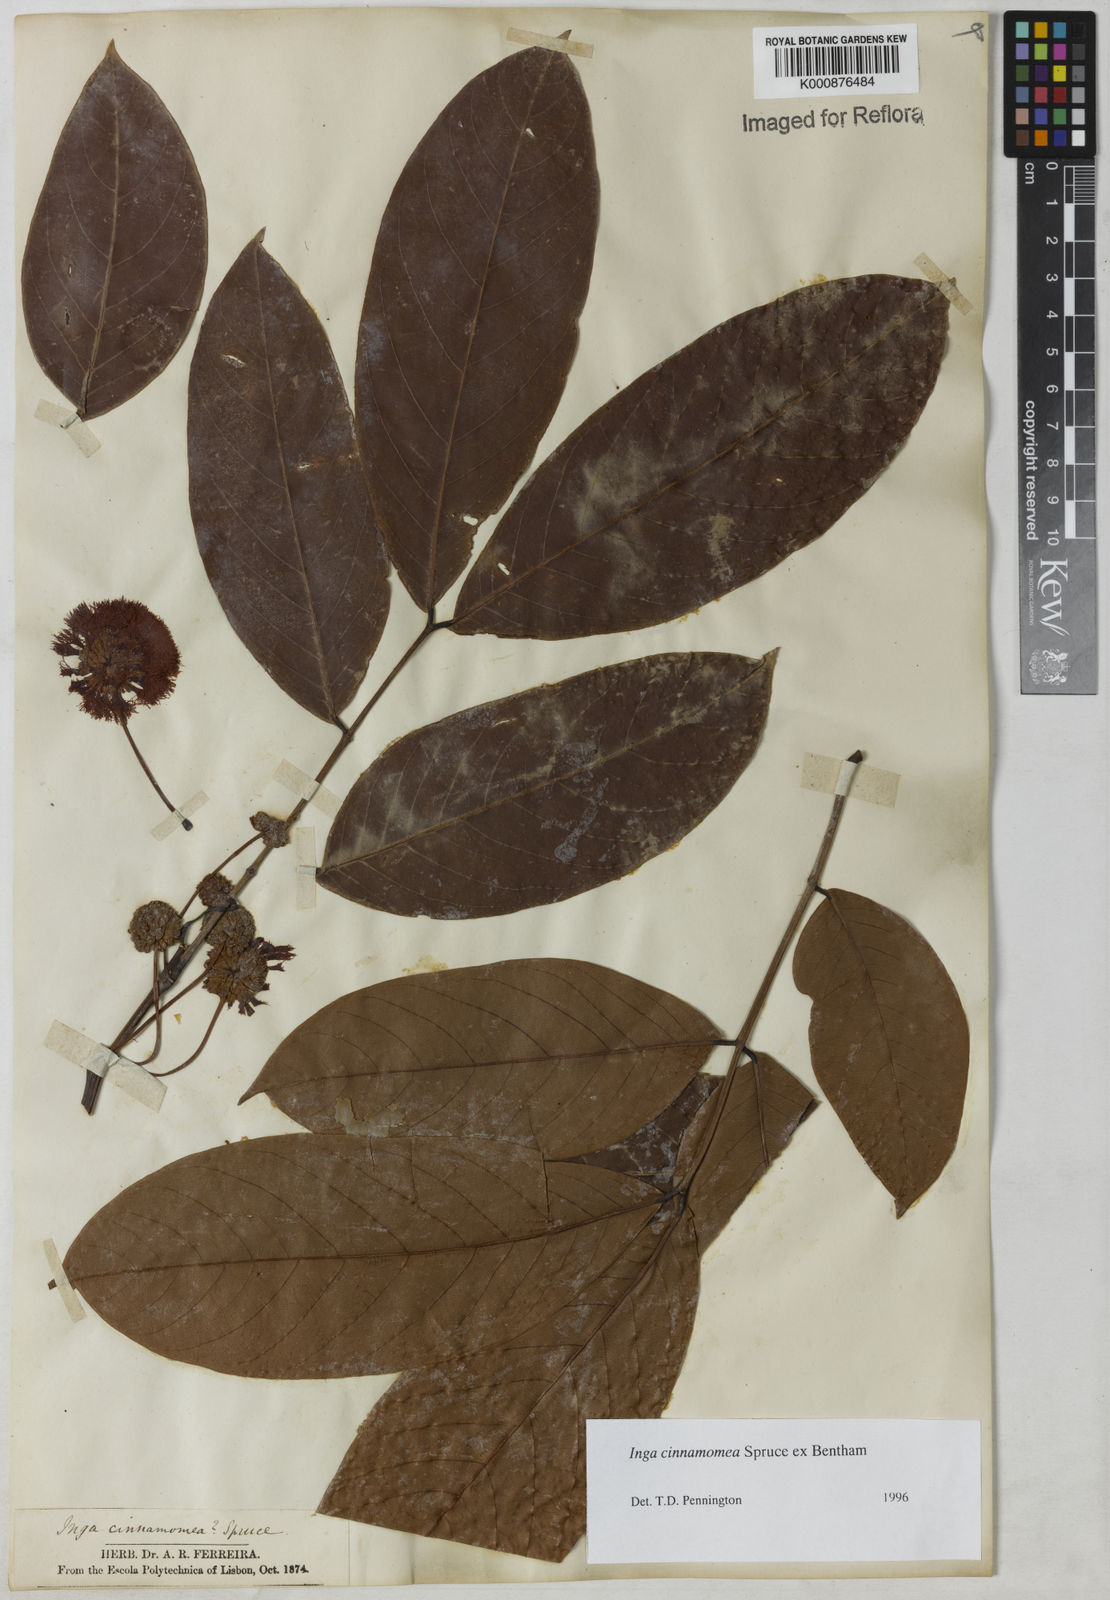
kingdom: Plantae
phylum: Tracheophyta
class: Magnoliopsida
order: Fabales
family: Fabaceae
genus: Inga
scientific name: Inga cinnamomea
